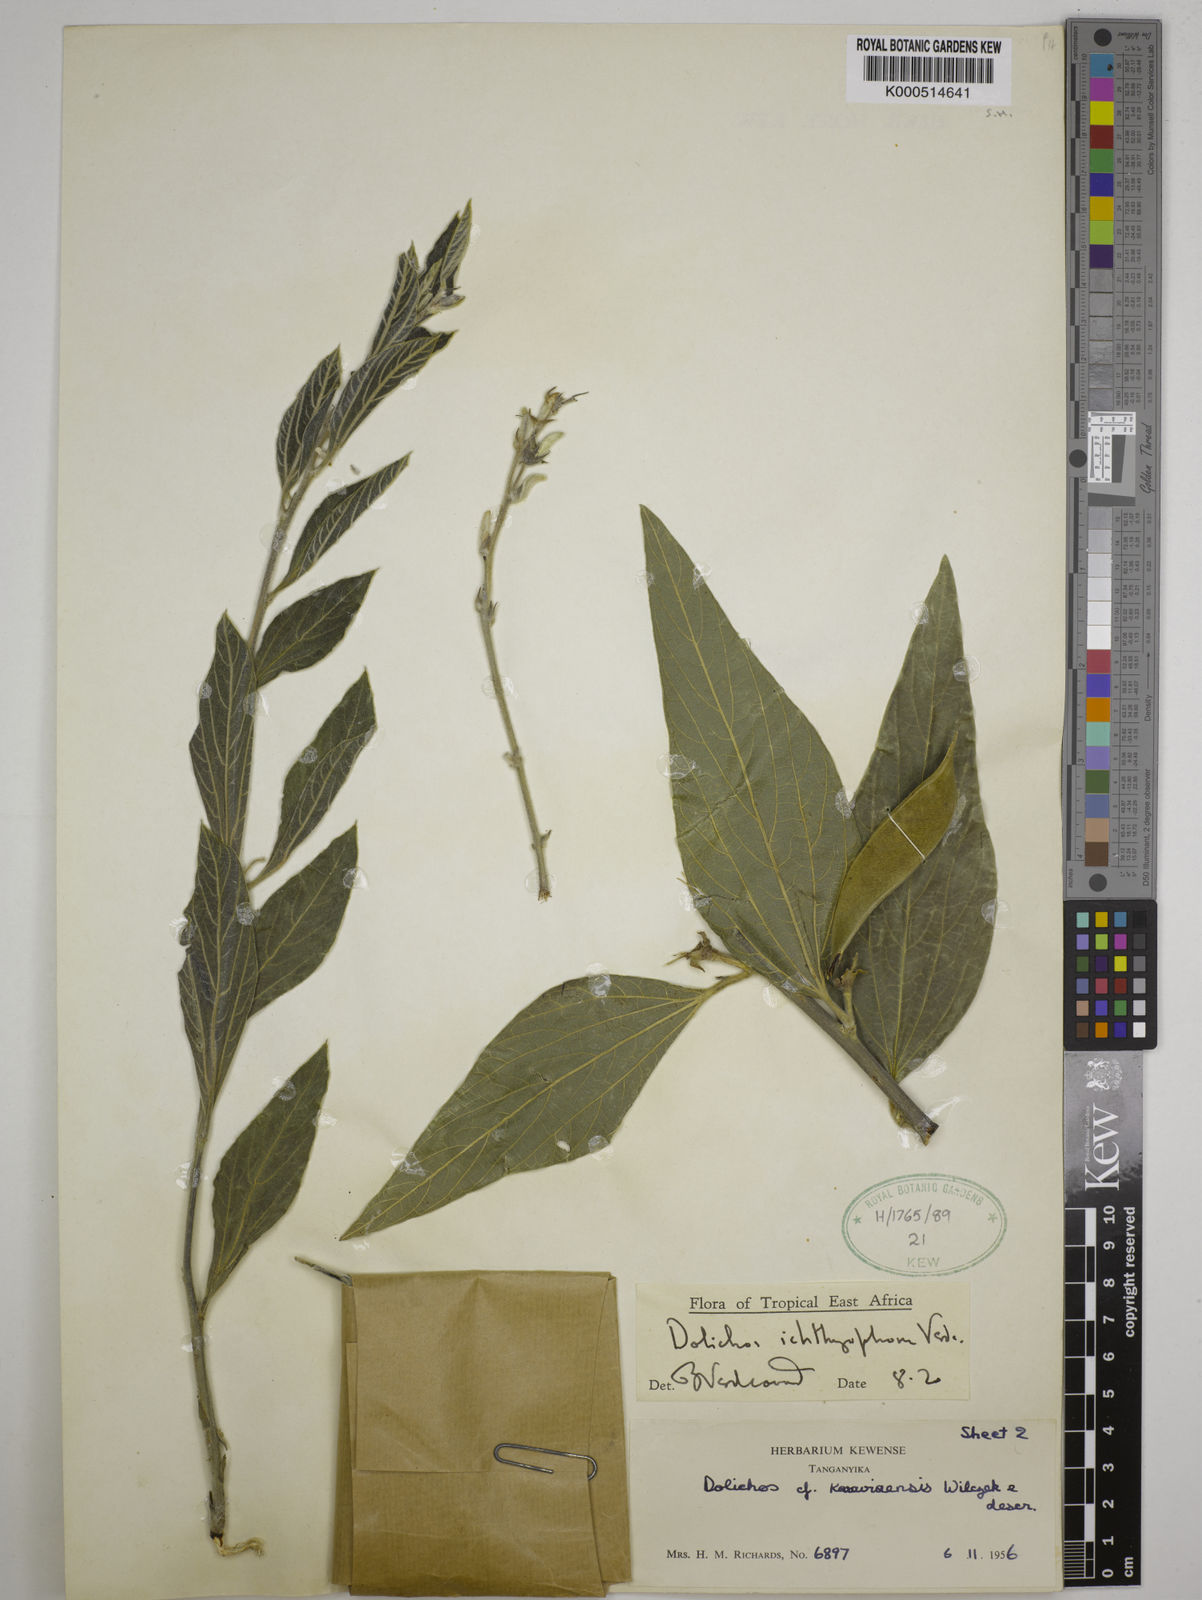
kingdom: Plantae
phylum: Tracheophyta
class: Magnoliopsida
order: Fabales
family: Fabaceae
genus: Dolichos
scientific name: Dolichos ichthyophone
